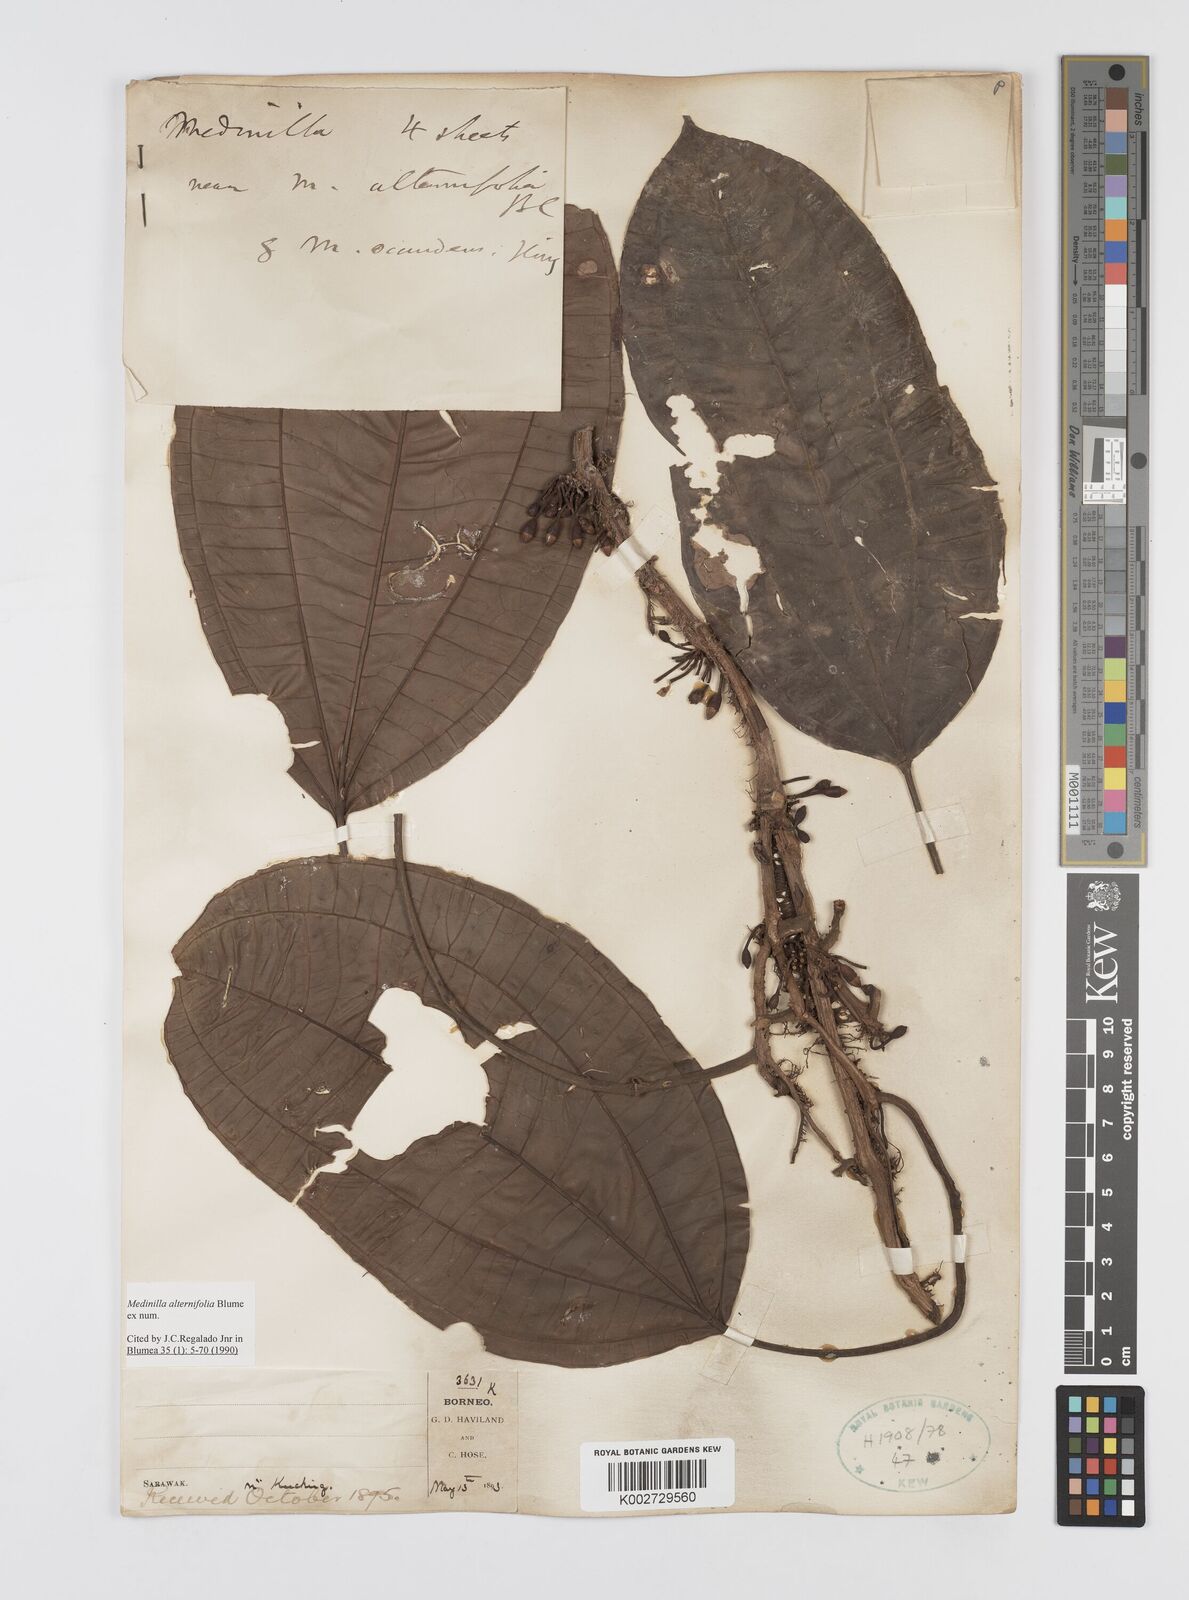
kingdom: Plantae
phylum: Tracheophyta
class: Magnoliopsida
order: Myrtales
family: Melastomataceae
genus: Heteroblemma
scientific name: Heteroblemma alternifolium
